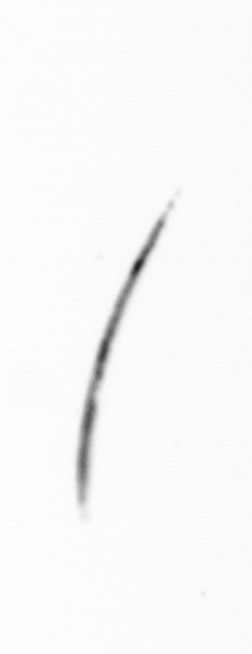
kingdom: Chromista
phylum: Ochrophyta
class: Bacillariophyceae
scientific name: Bacillariophyceae
